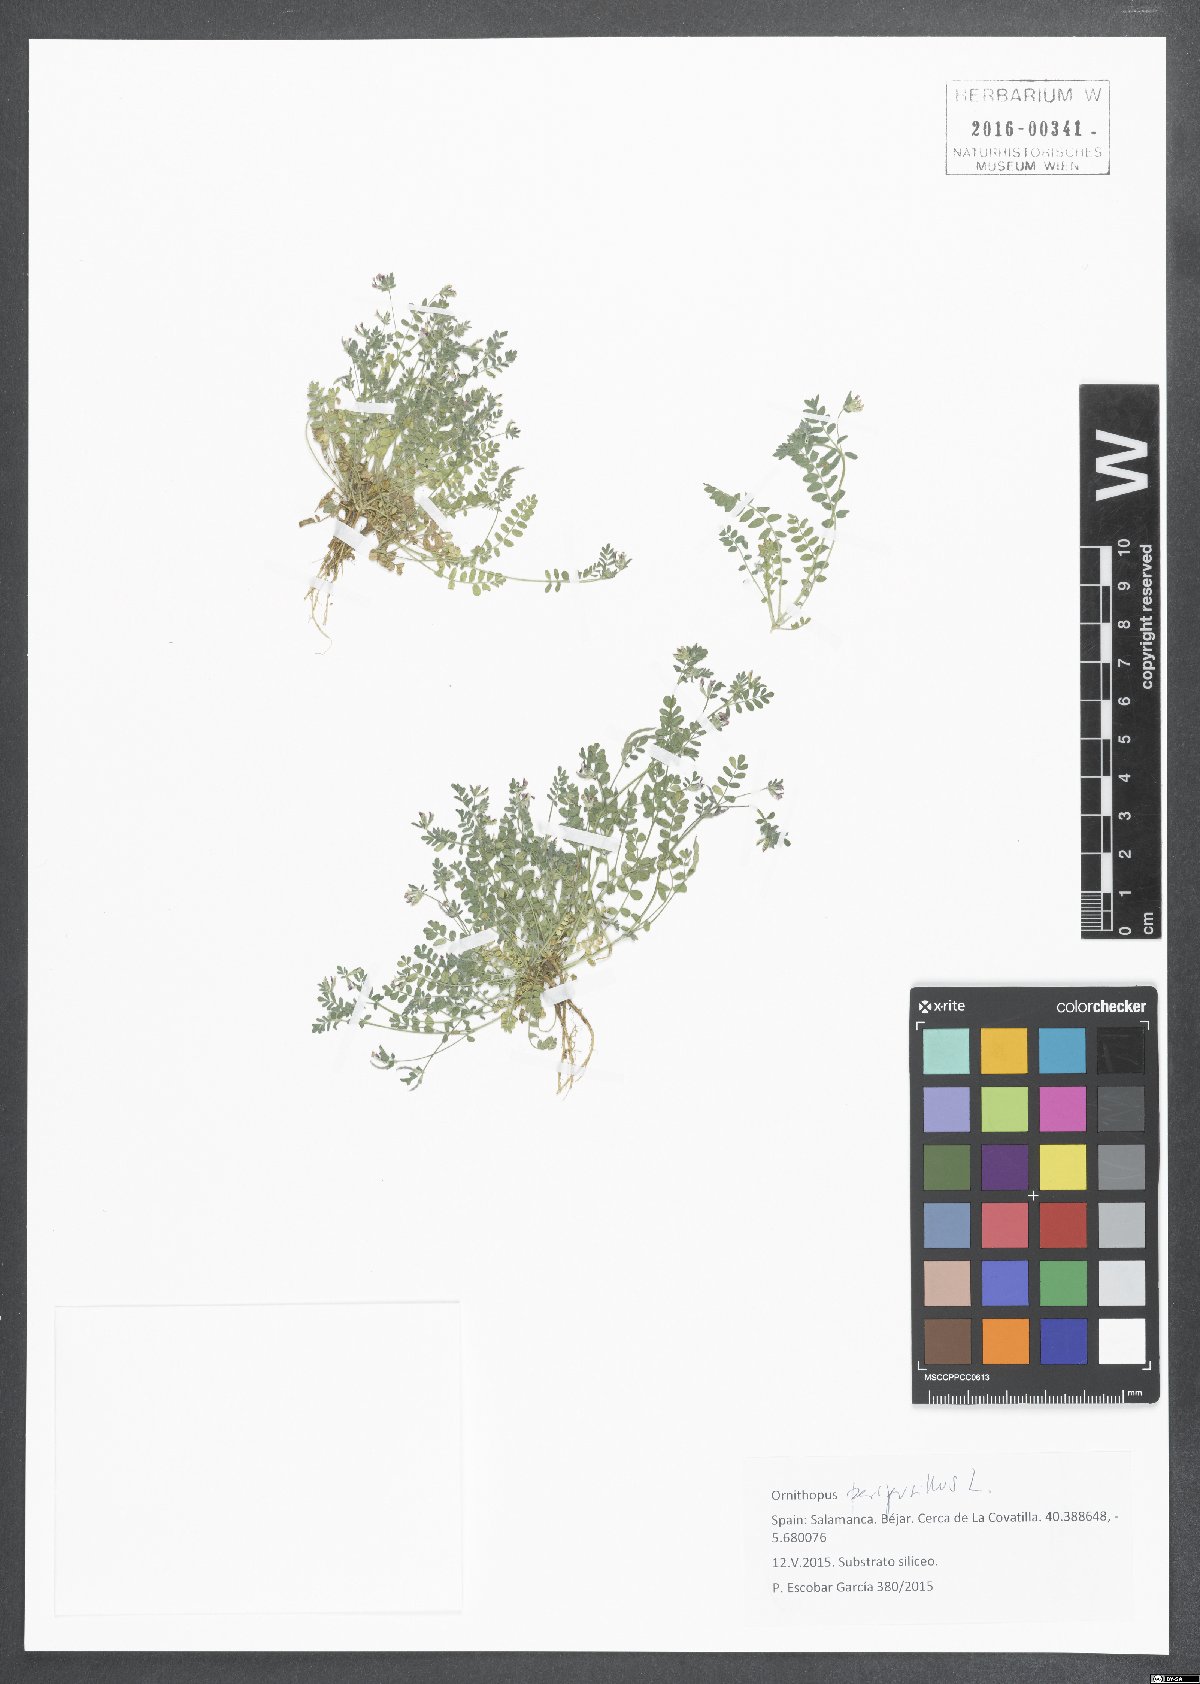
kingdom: Plantae
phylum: Tracheophyta
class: Magnoliopsida
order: Fabales
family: Fabaceae
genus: Ornithopus
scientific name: Ornithopus perpusillus
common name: Bird's-foot
